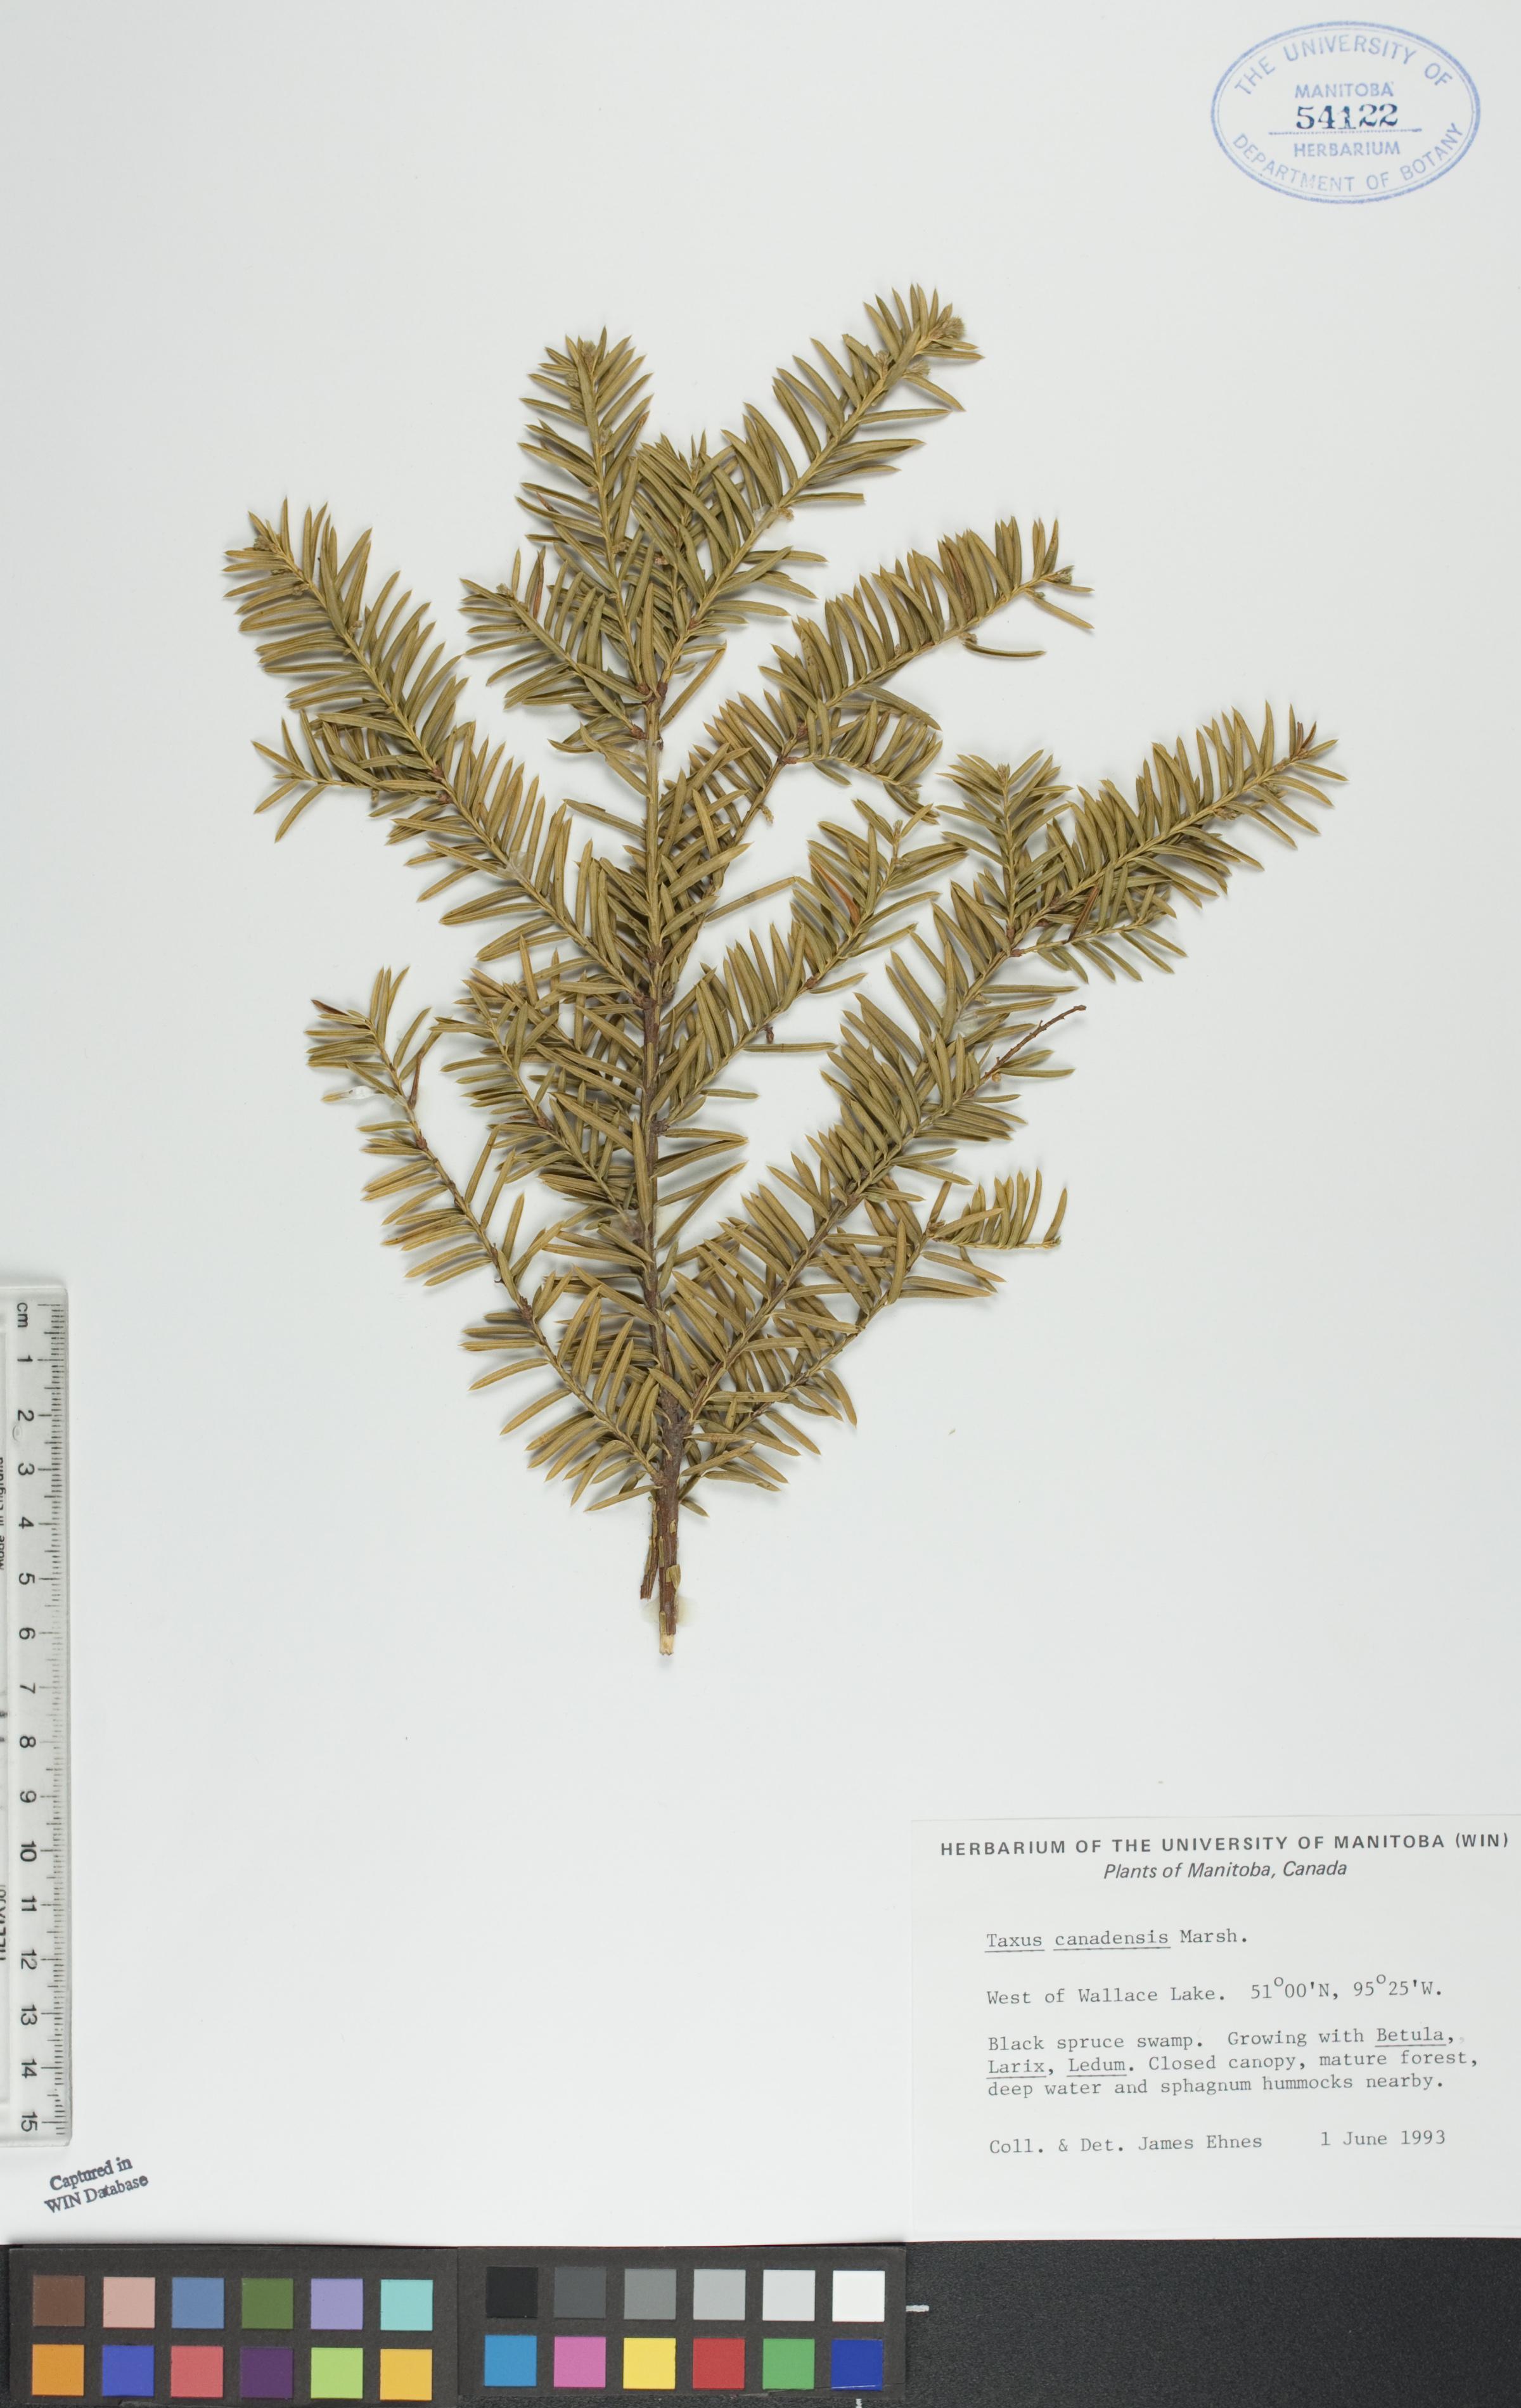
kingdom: Plantae
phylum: Tracheophyta
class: Pinopsida
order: Pinales
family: Taxaceae
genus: Taxus
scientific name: Taxus canadensis
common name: American yew
